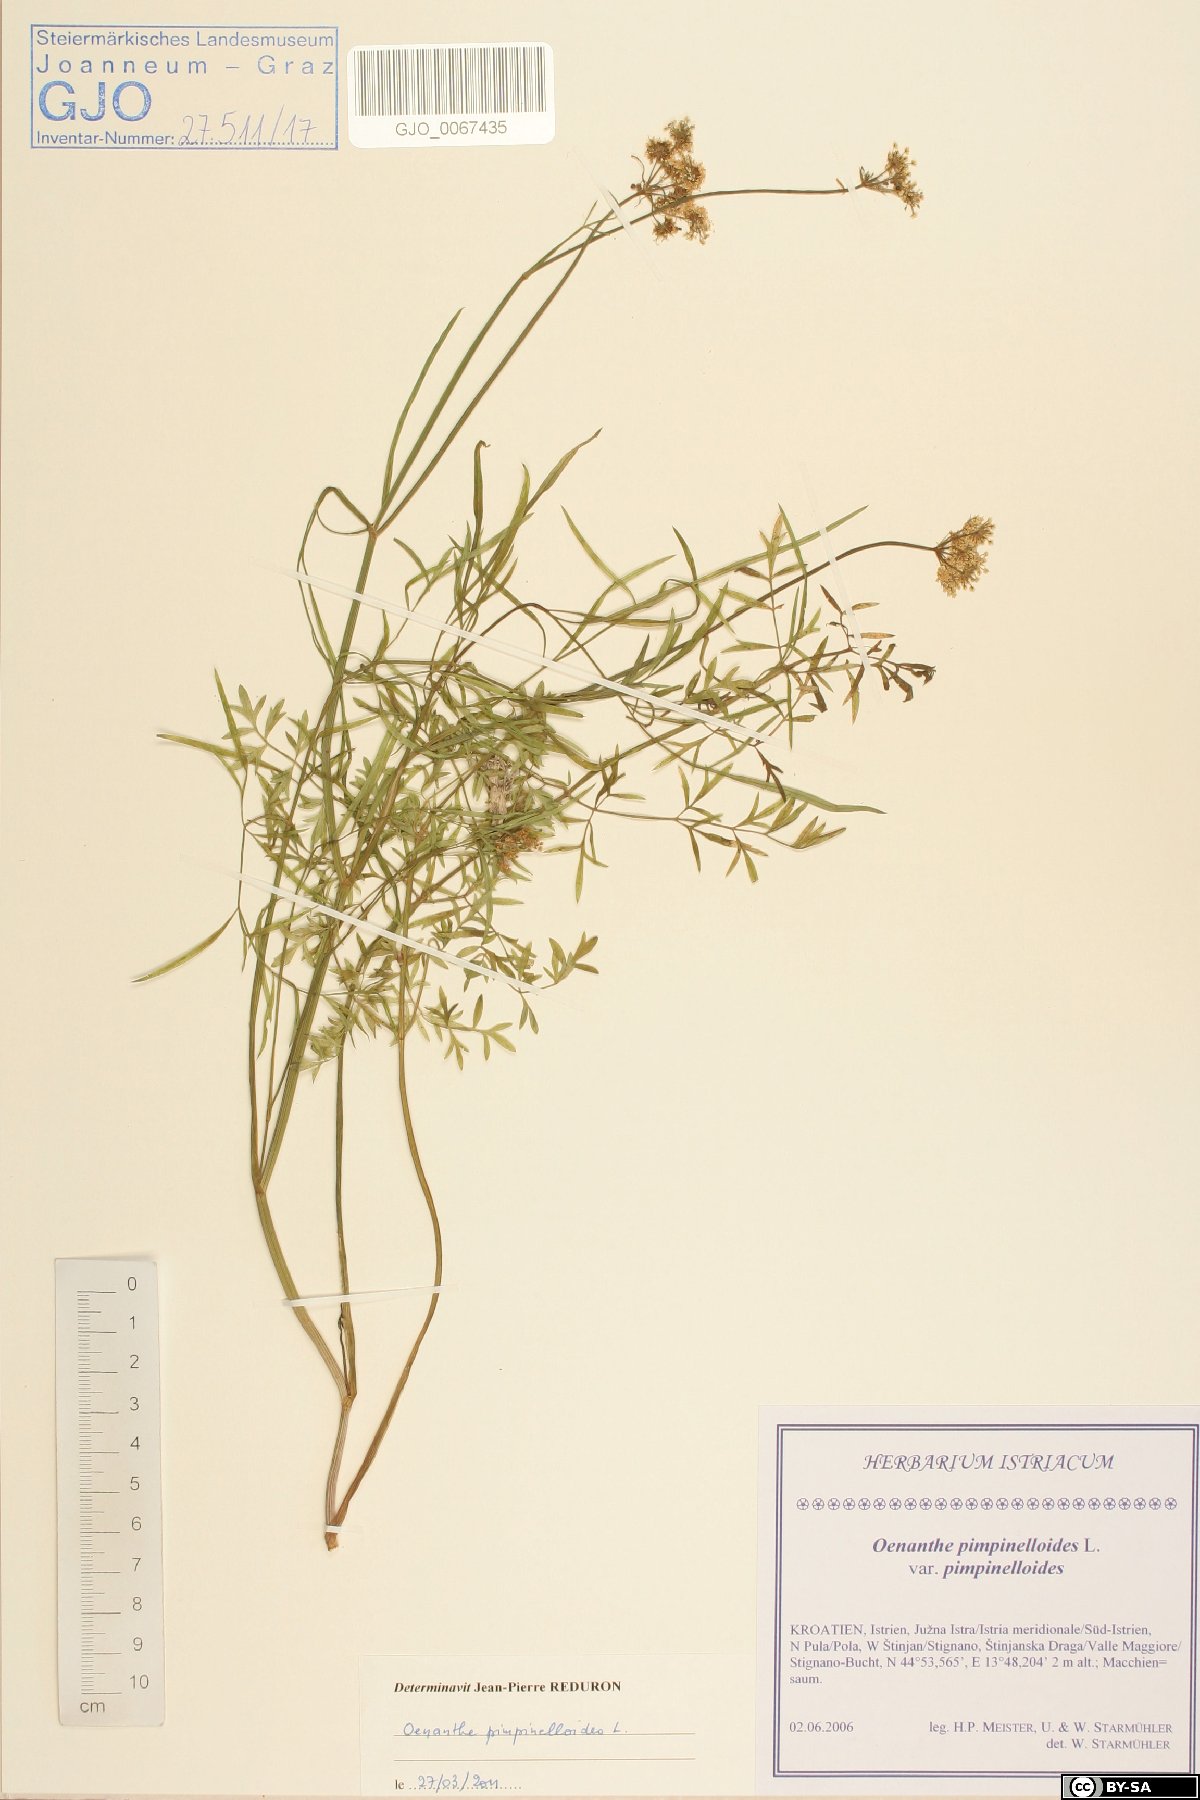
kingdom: Plantae
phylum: Tracheophyta
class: Magnoliopsida
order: Apiales
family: Apiaceae
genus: Oenanthe
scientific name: Oenanthe pimpinelloides
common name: Corky-fruited water-dropwort
